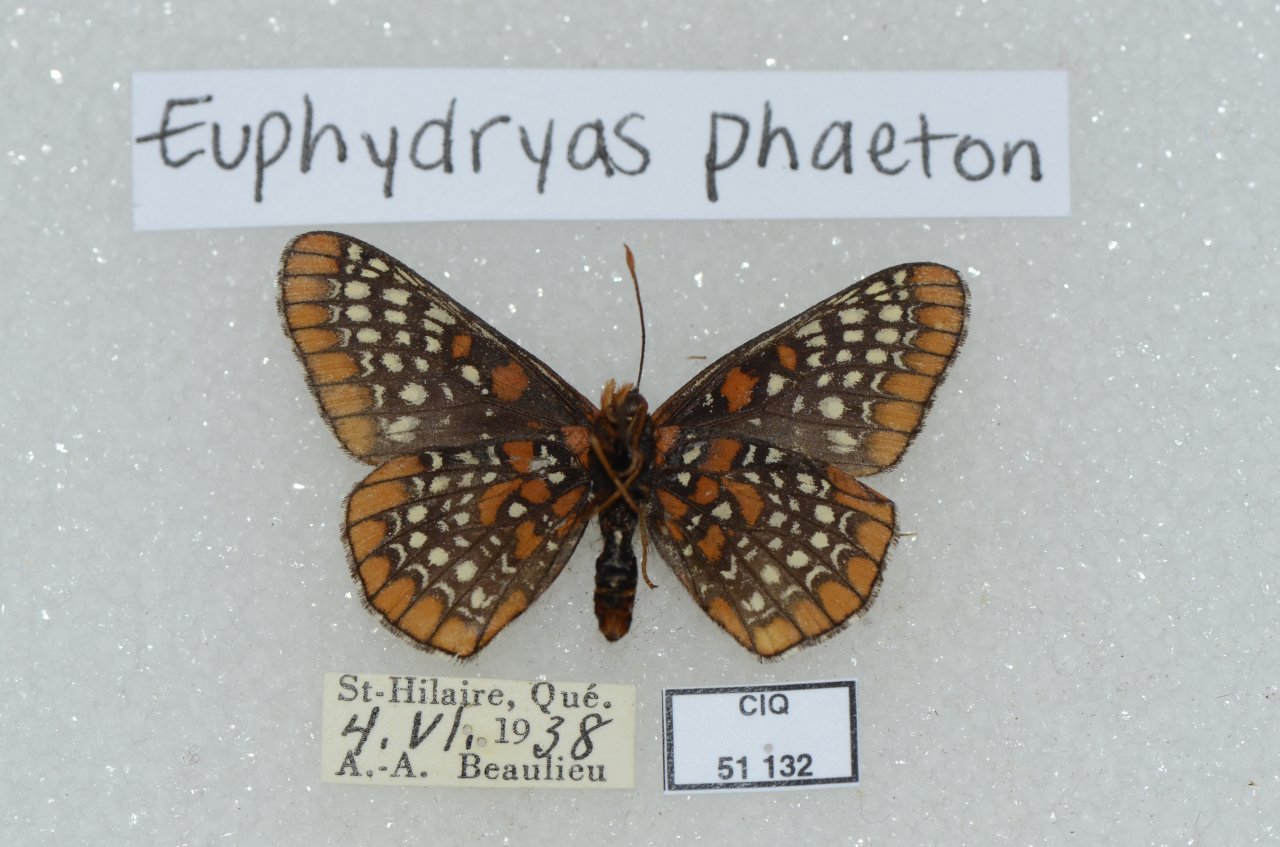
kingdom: Animalia
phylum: Arthropoda
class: Insecta
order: Lepidoptera
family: Nymphalidae
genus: Euphydryas
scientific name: Euphydryas phaeton
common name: Baltimore Checkerspot
